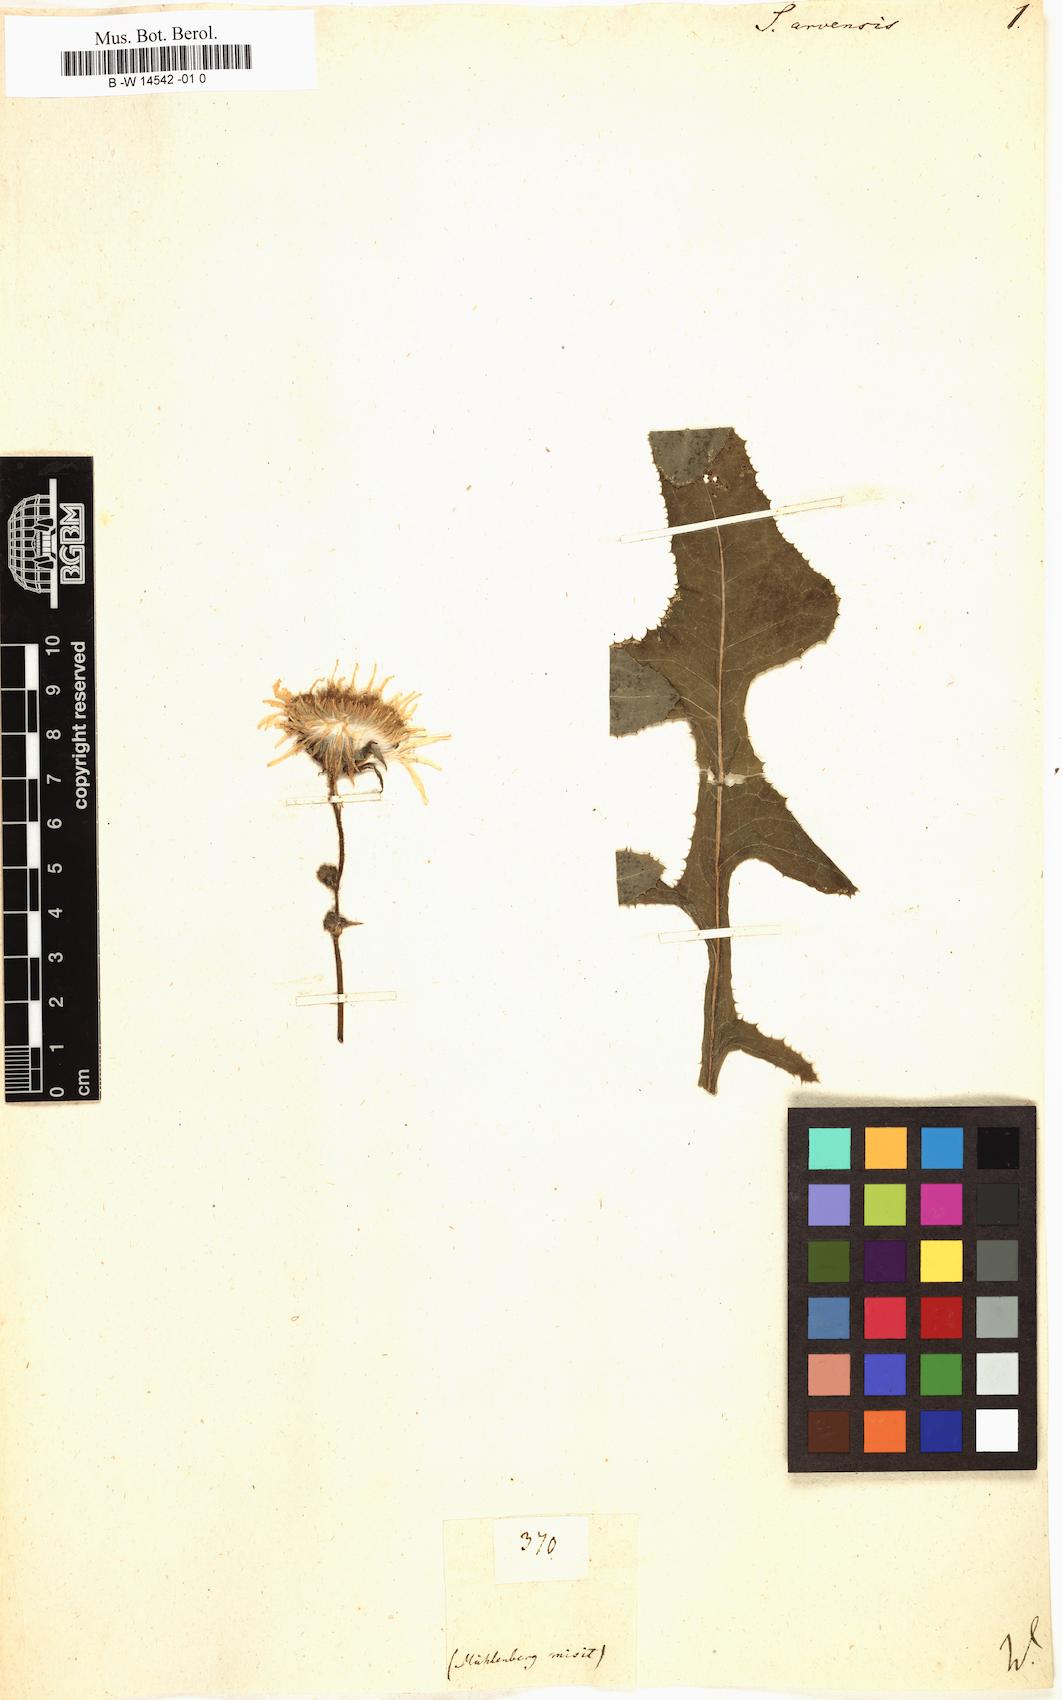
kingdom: Plantae
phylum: Tracheophyta
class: Magnoliopsida
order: Asterales
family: Asteraceae
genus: Sonchus
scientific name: Sonchus arvensis
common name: Perennial sow-thistle
